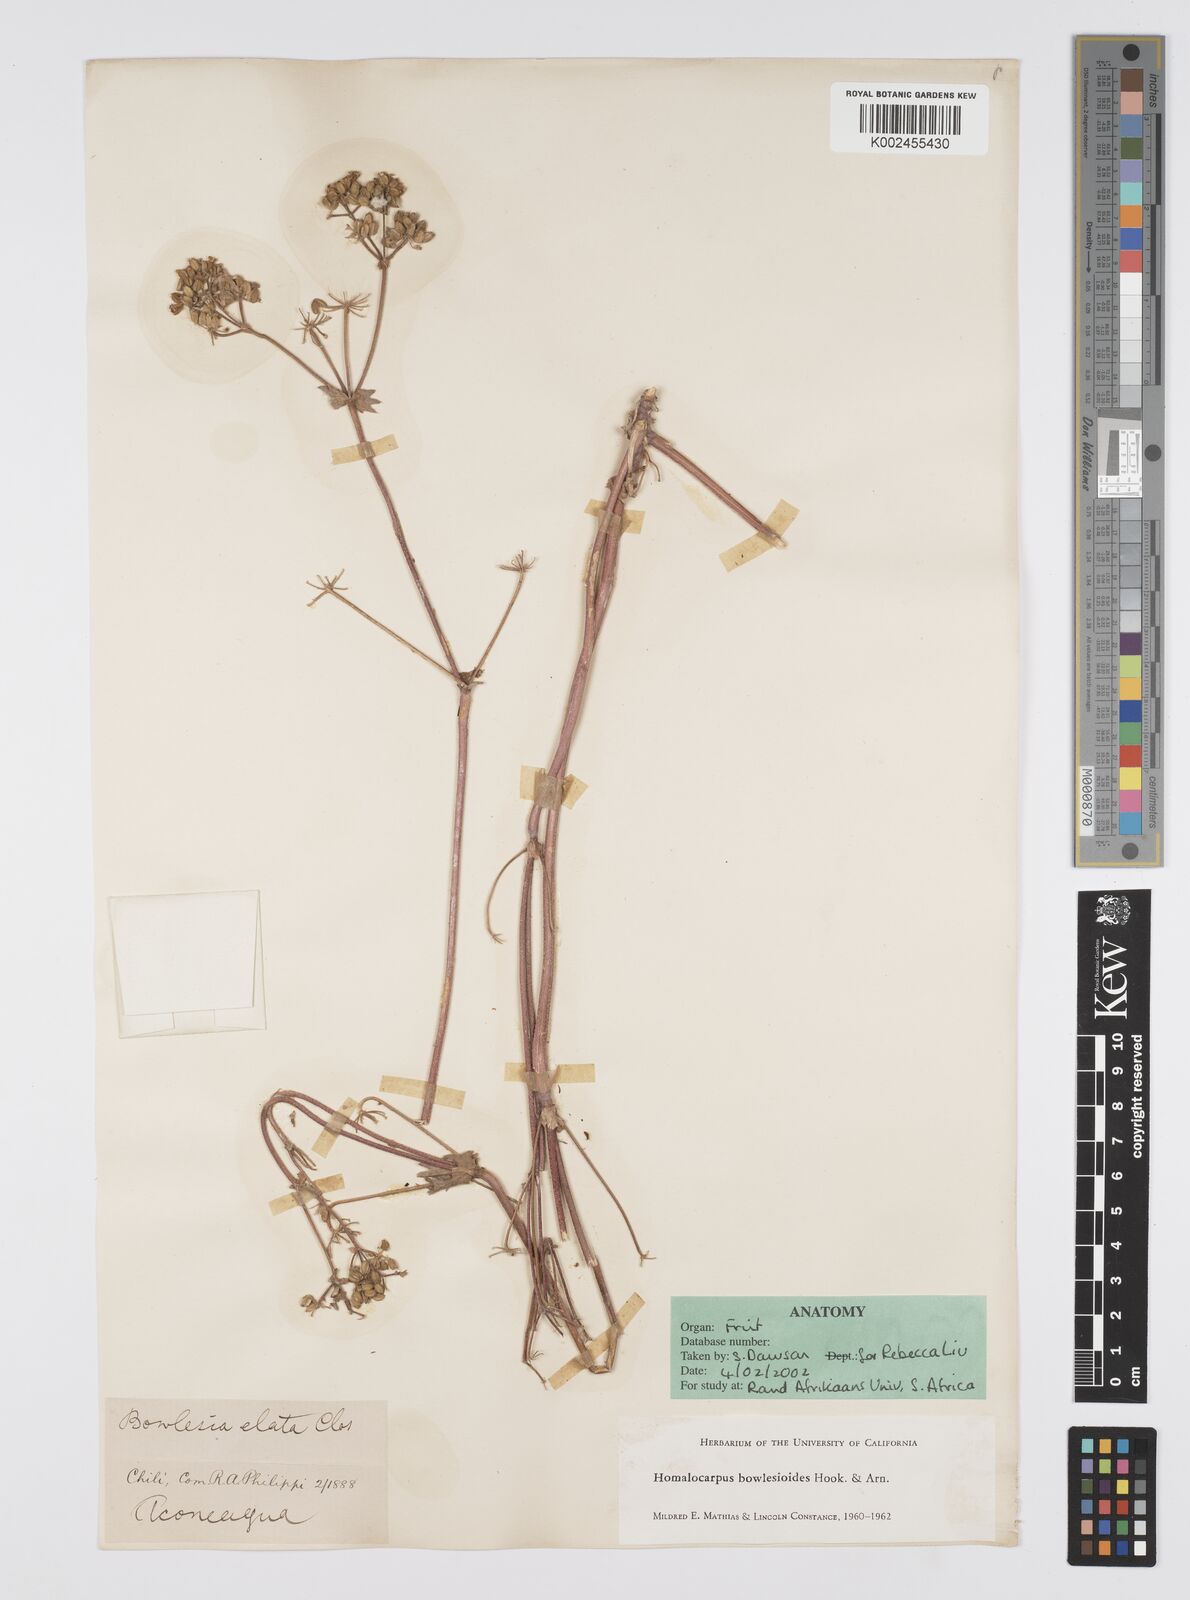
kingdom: Plantae
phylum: Tracheophyta
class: Magnoliopsida
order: Apiales
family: Apiaceae
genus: Homalocarpus
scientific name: Homalocarpus bowlesioides
